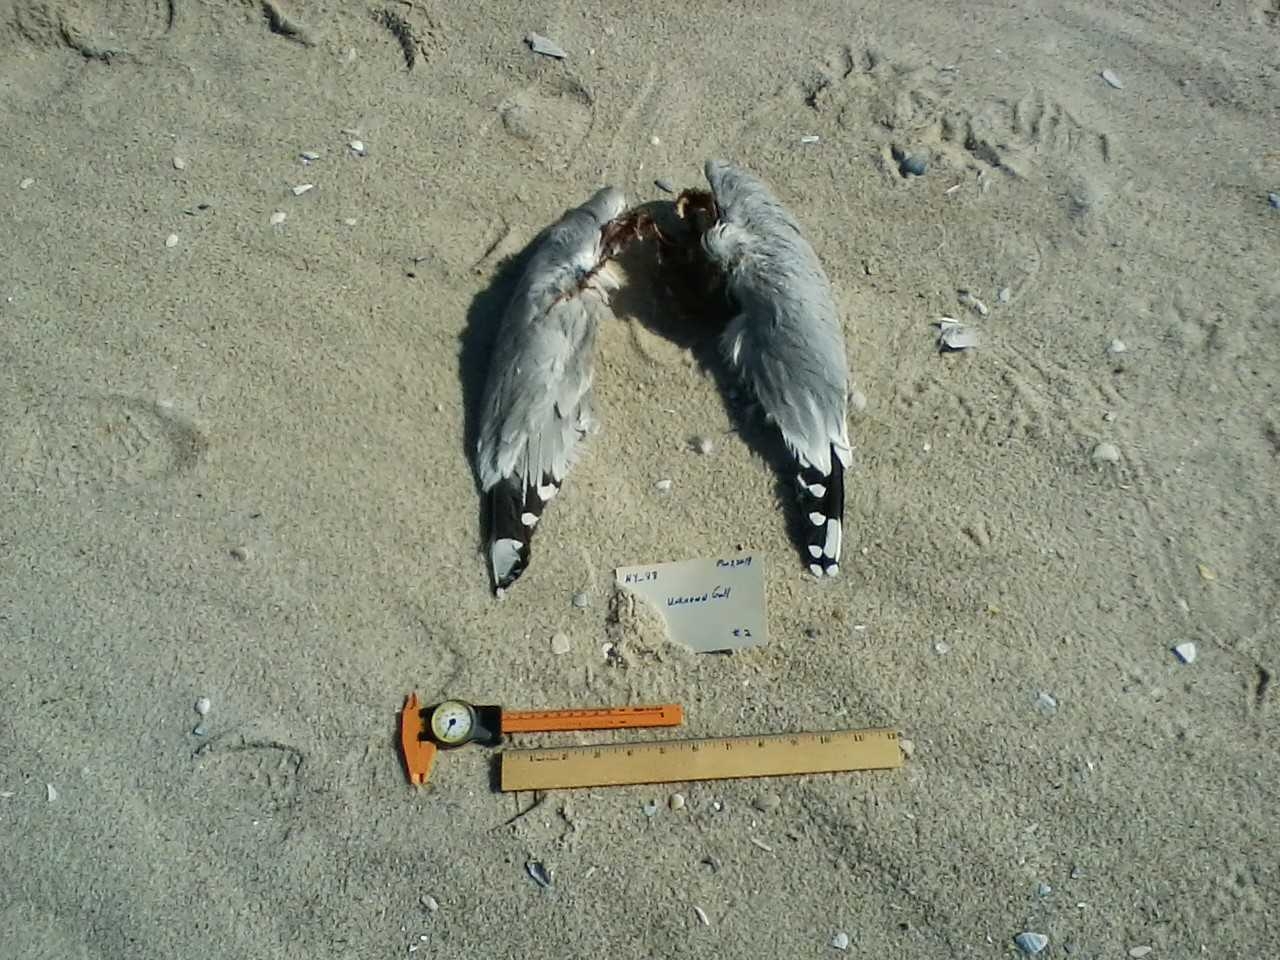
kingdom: Animalia
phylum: Chordata
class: Aves
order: Charadriiformes
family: Scolopacidae
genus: Calidris
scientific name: Calidris alba
